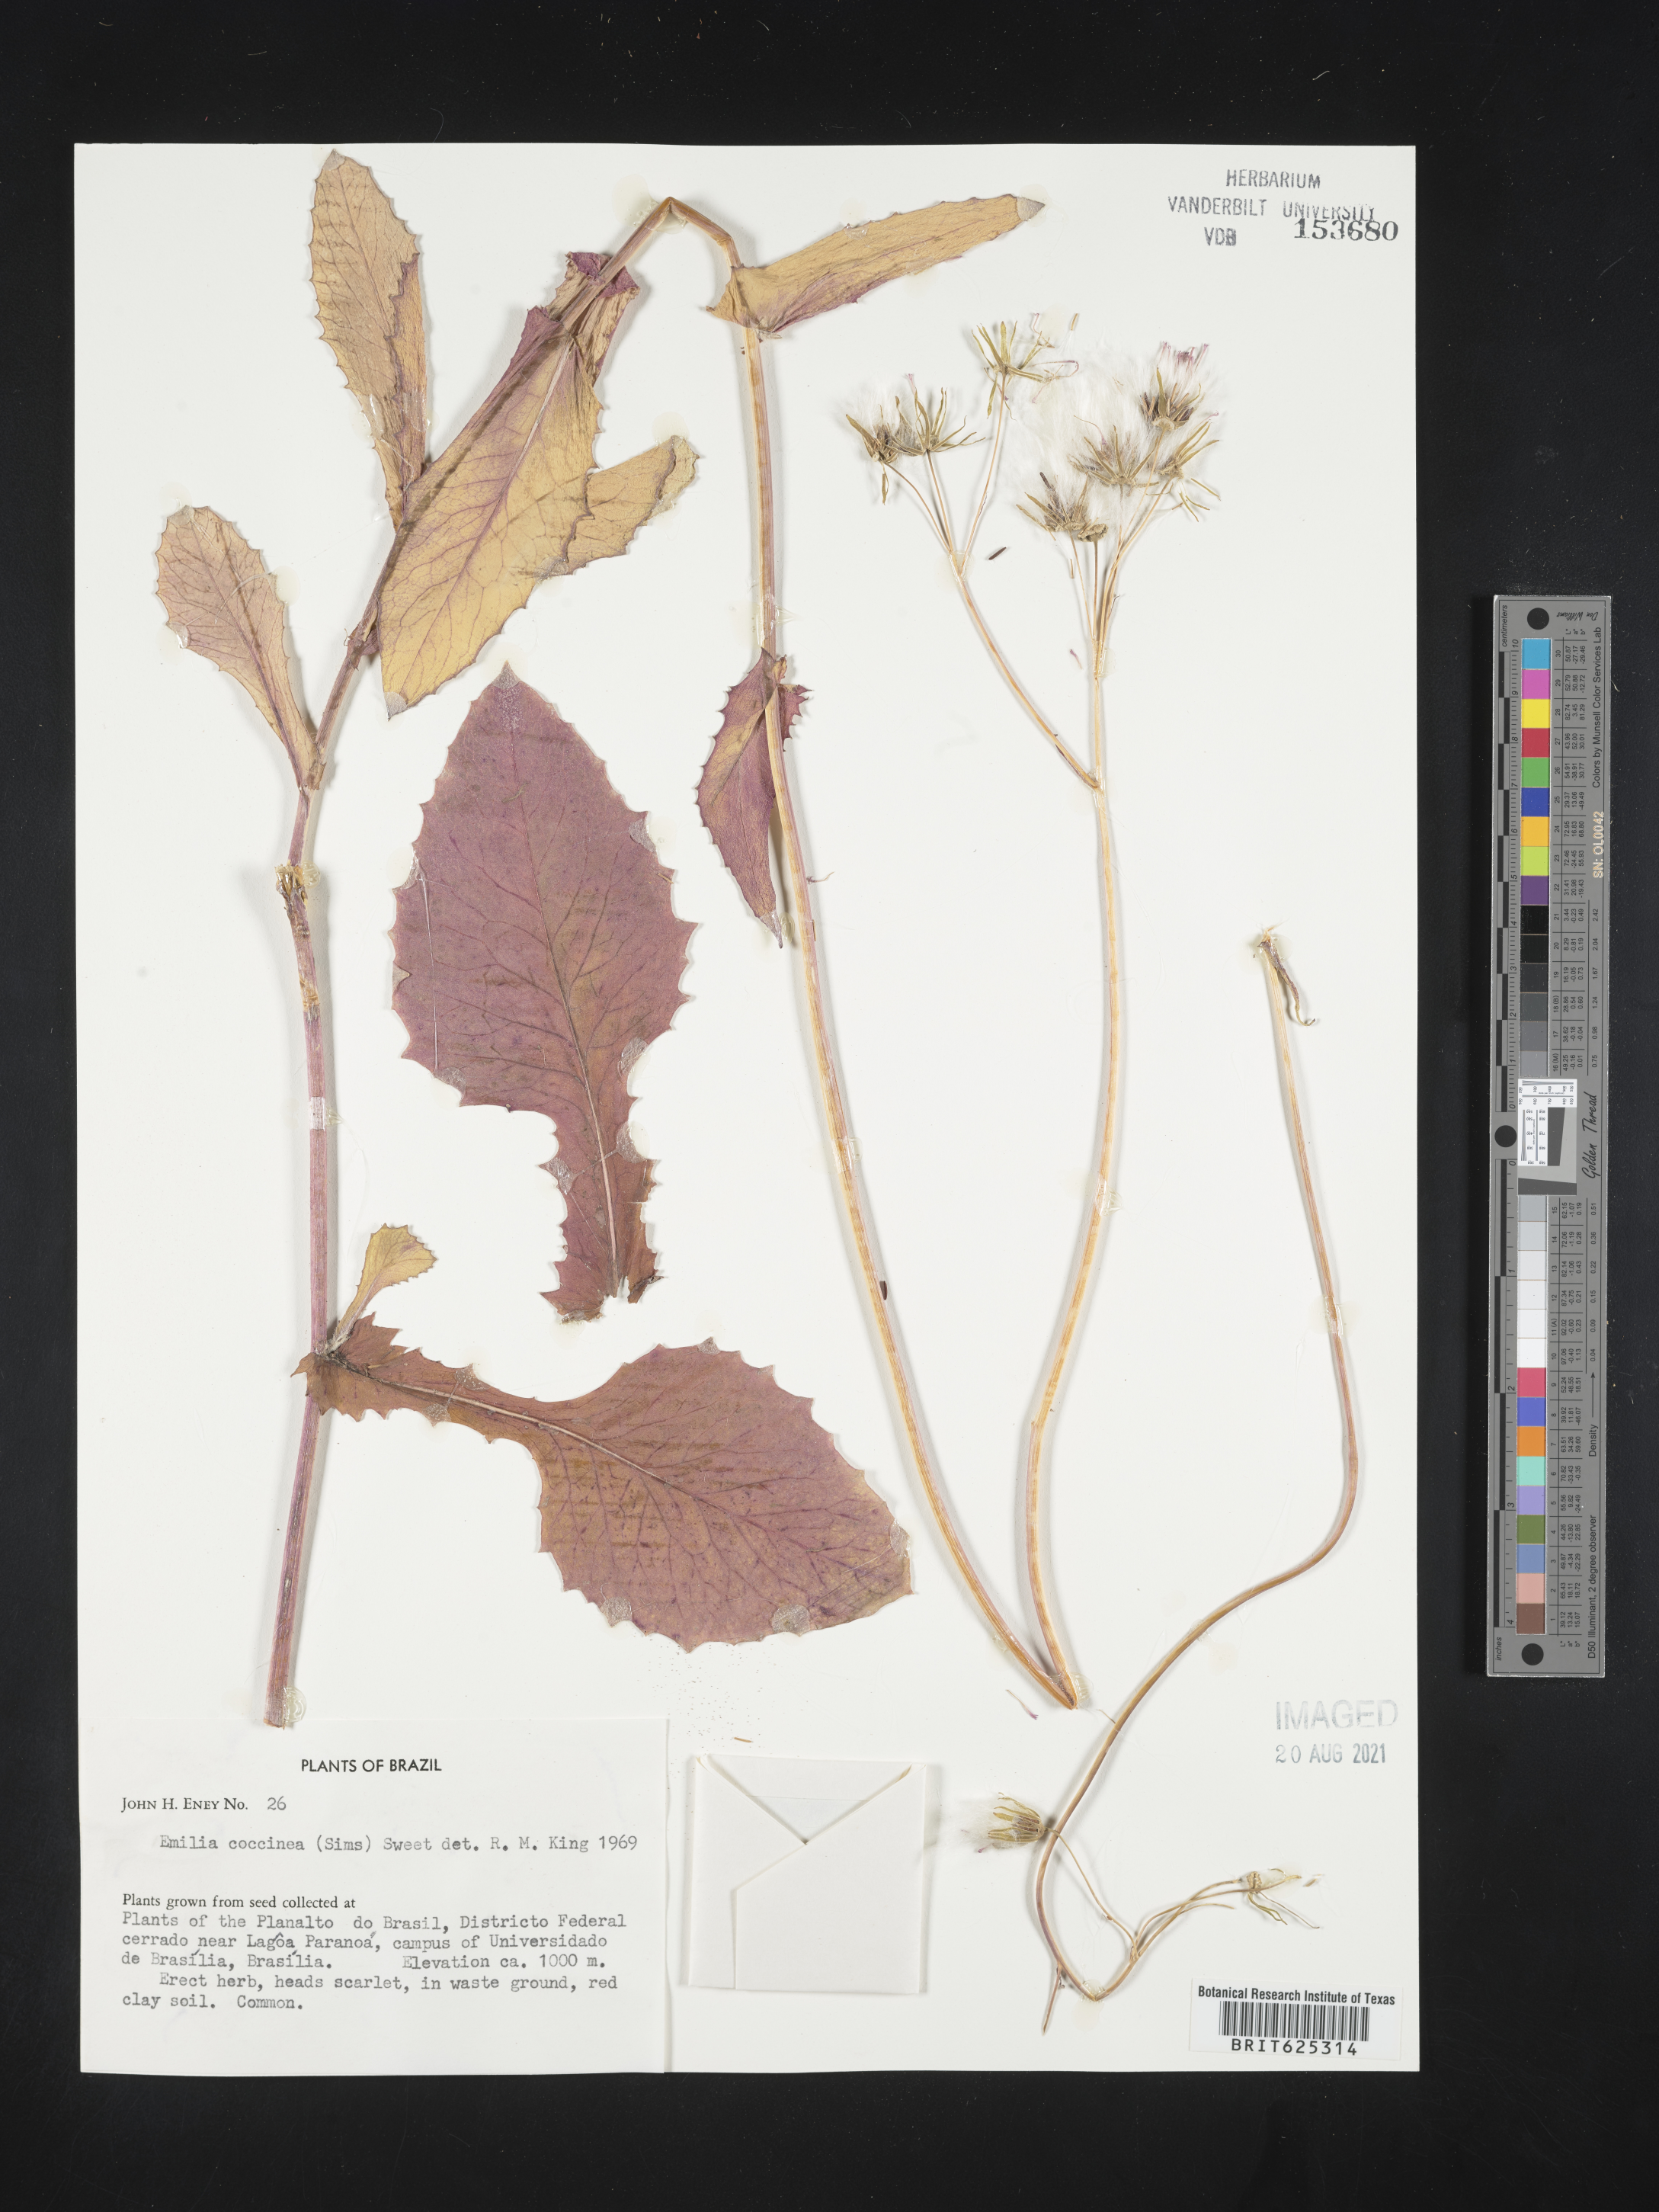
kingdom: Plantae
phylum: Tracheophyta
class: Magnoliopsida
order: Asterales
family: Asteraceae
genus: Emilia
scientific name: Emilia coccinea
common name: Scarlet tasselflower
